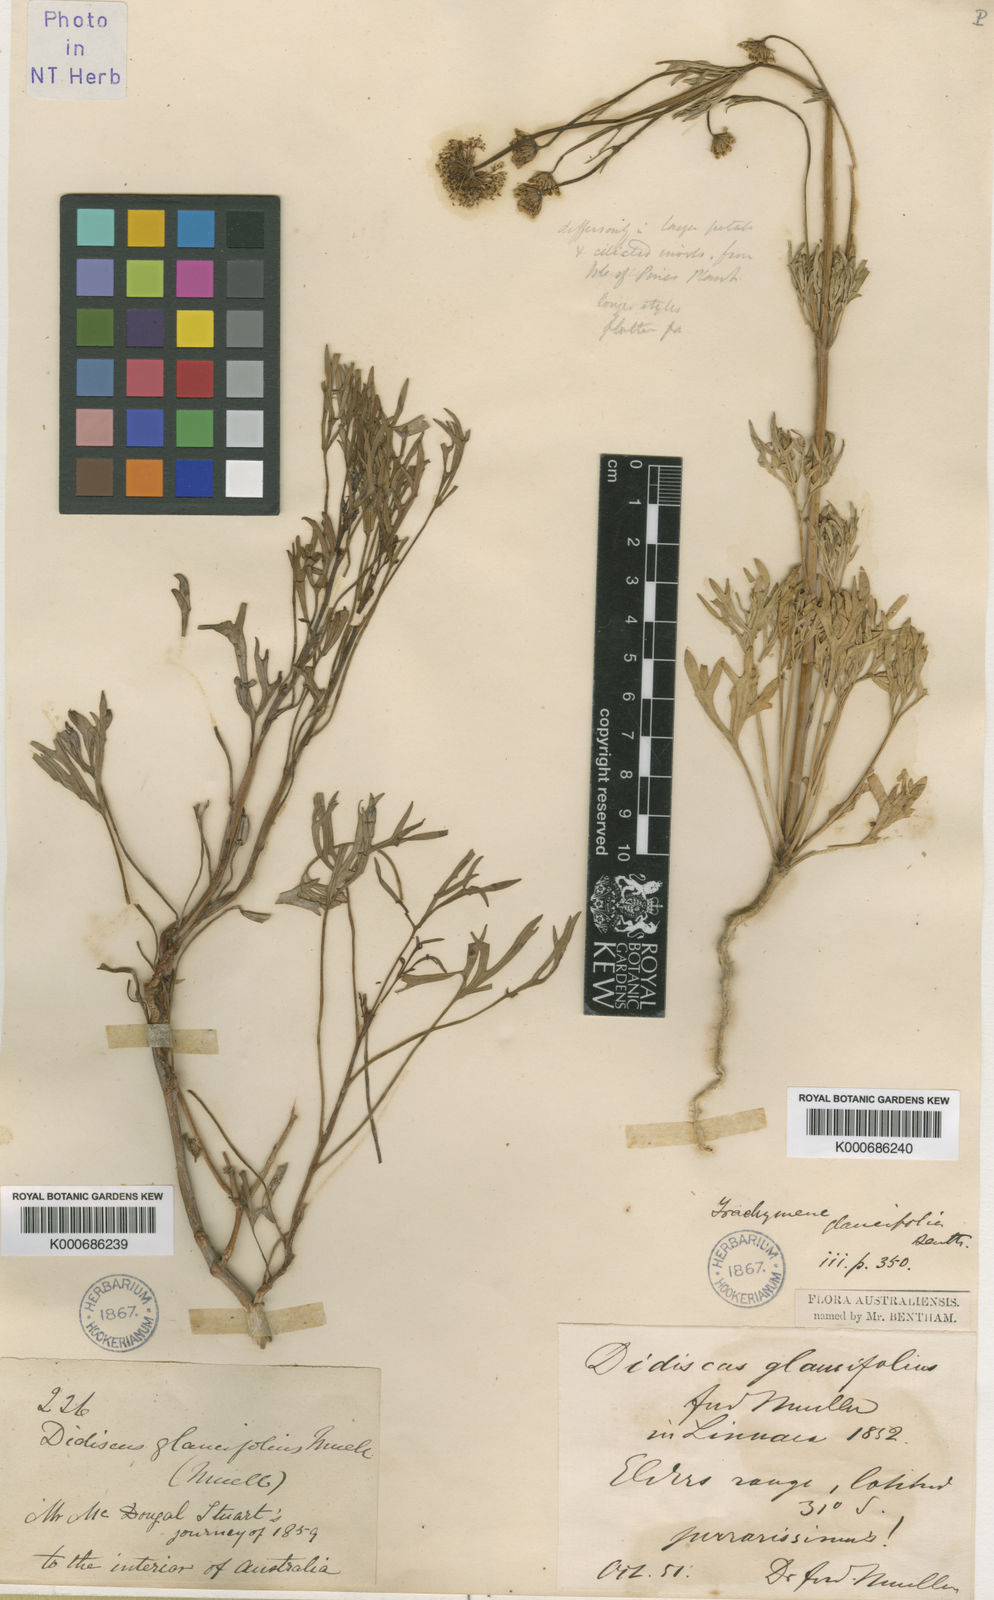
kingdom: Plantae
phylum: Tracheophyta
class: Magnoliopsida
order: Apiales
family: Araliaceae
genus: Trachymene
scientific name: Trachymene glaucifolia
